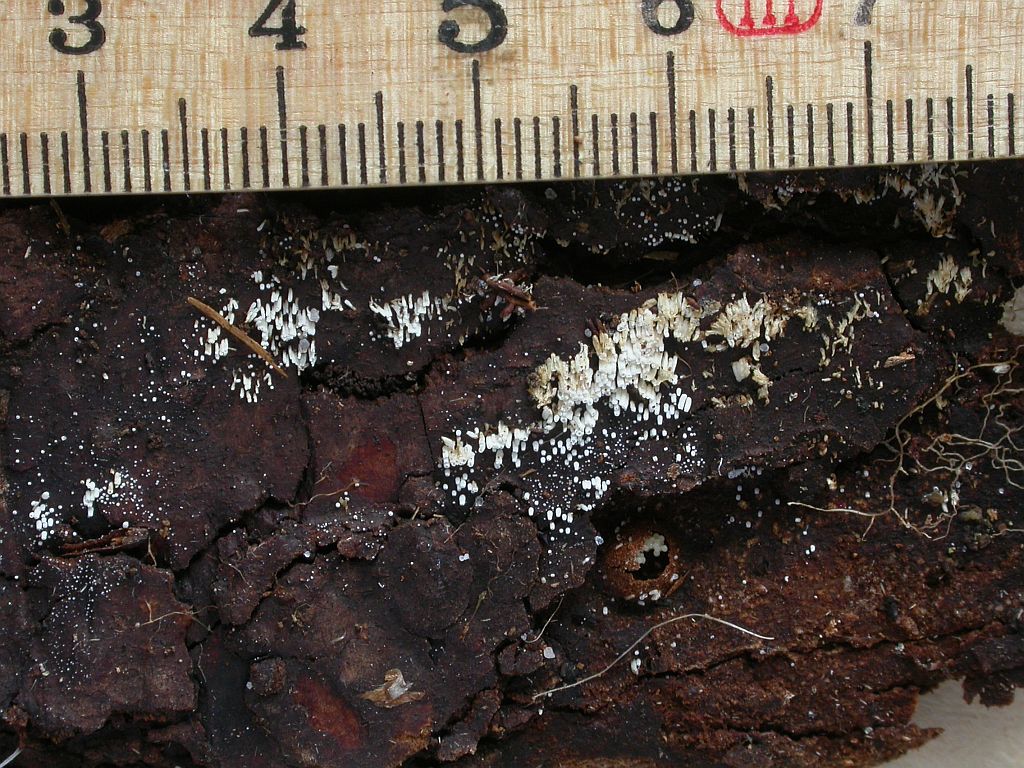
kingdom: Fungi
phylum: Basidiomycota
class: Agaricomycetes
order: Agaricales
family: Marasmiaceae
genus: Henningsomyces
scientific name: Henningsomyces candidus
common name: glat hængerør
